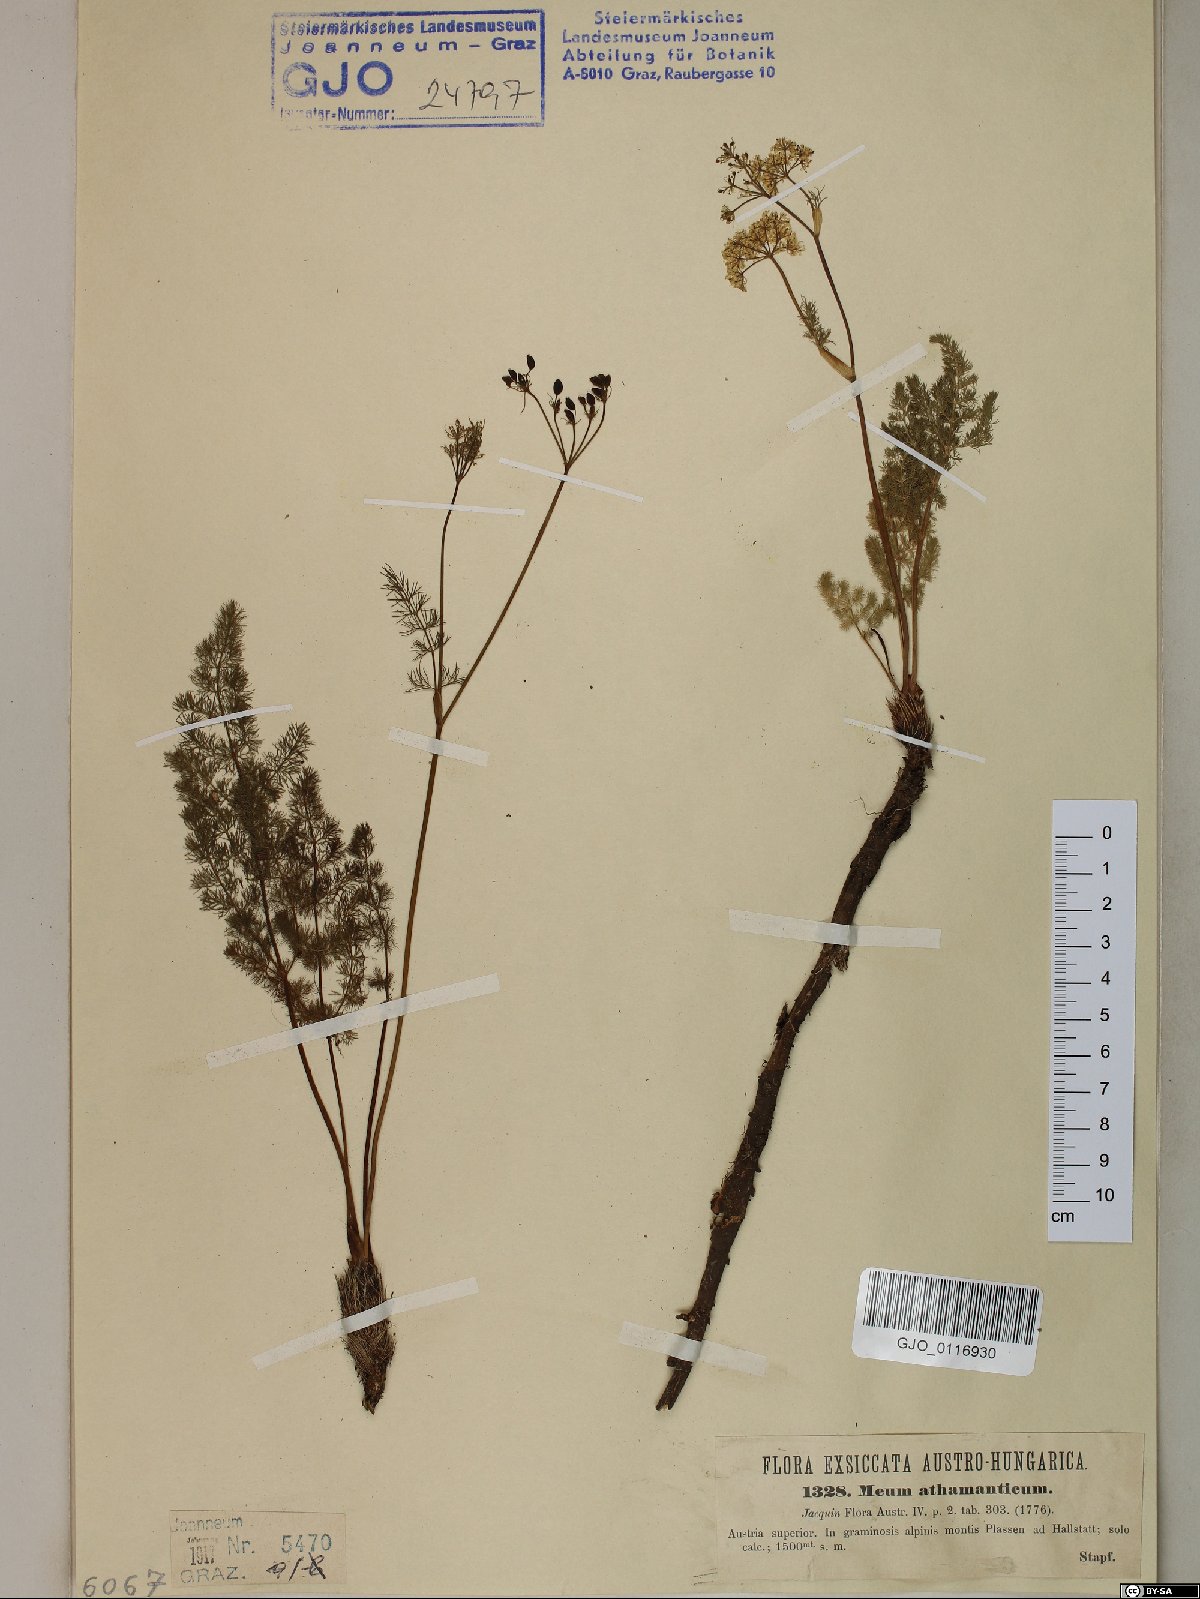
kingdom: Plantae
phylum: Tracheophyta
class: Magnoliopsida
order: Apiales
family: Apiaceae
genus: Meum
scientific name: Meum athamanticum
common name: Spignel
